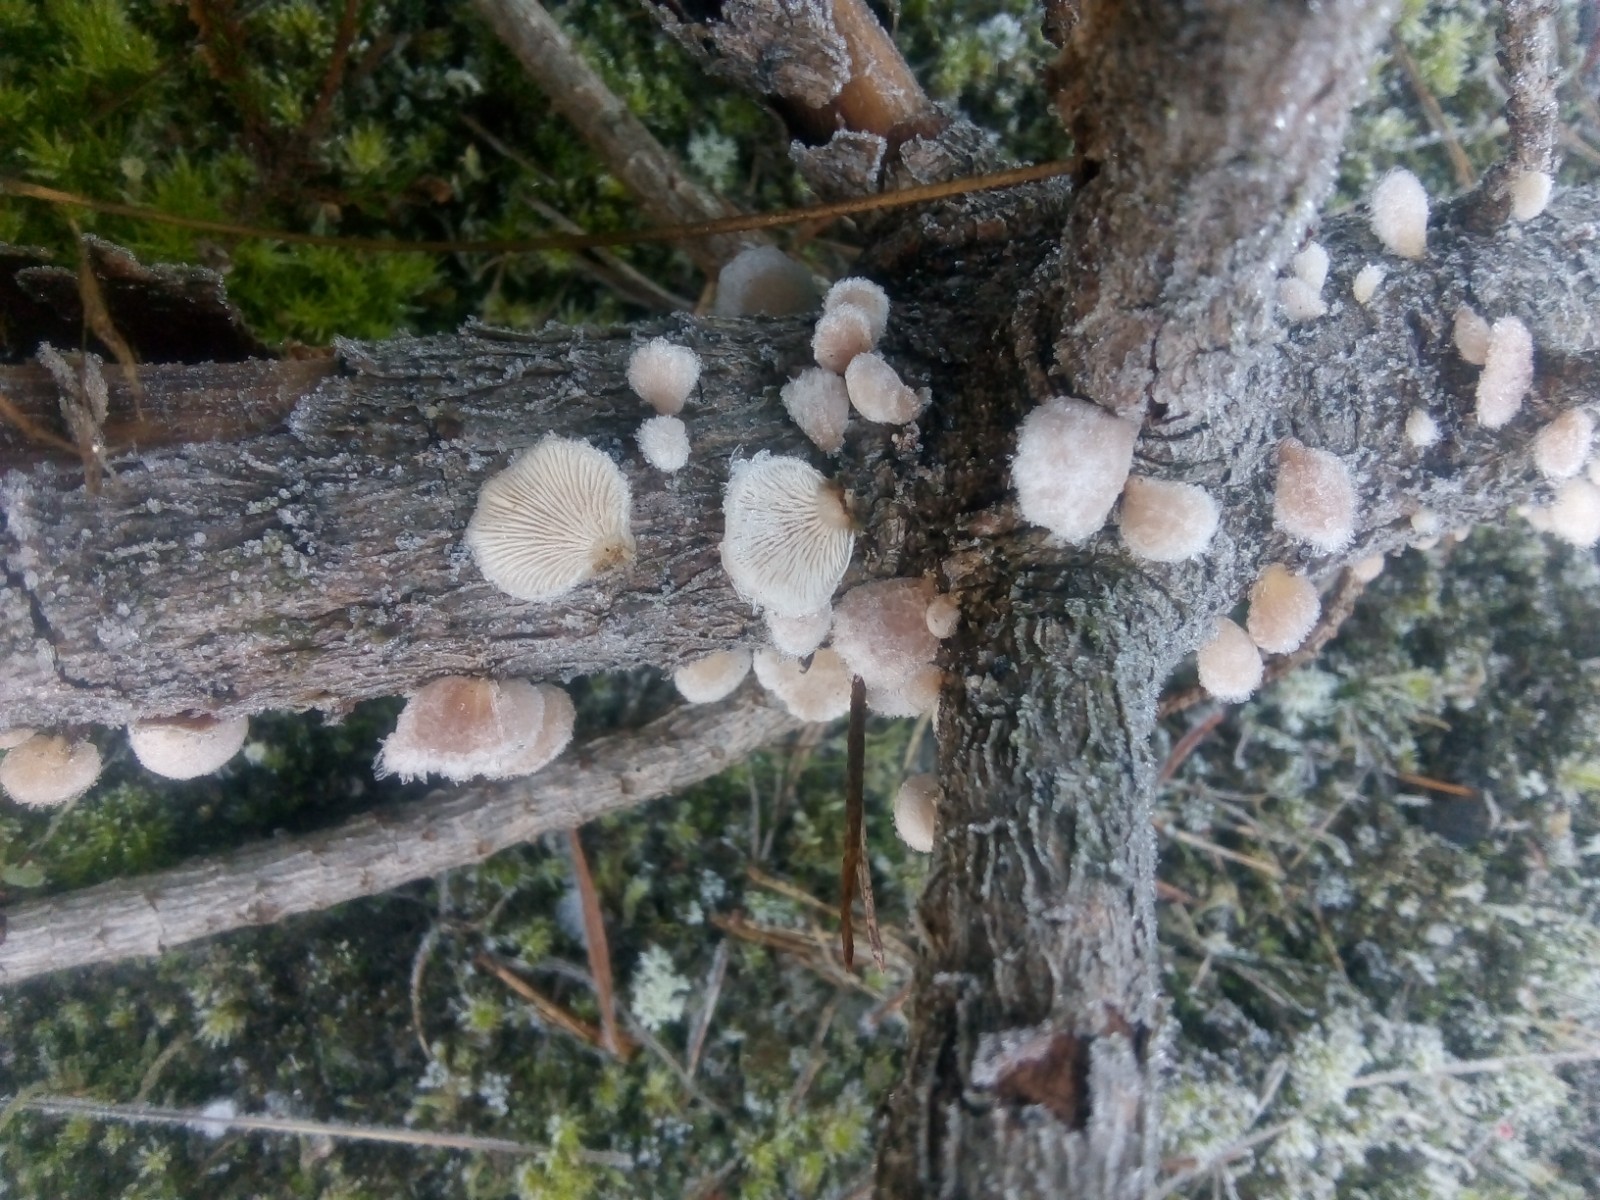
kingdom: Fungi
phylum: Basidiomycota
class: Agaricomycetes
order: Agaricales
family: Mycenaceae
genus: Panellus
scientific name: Panellus mitis
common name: mild epaulethat
